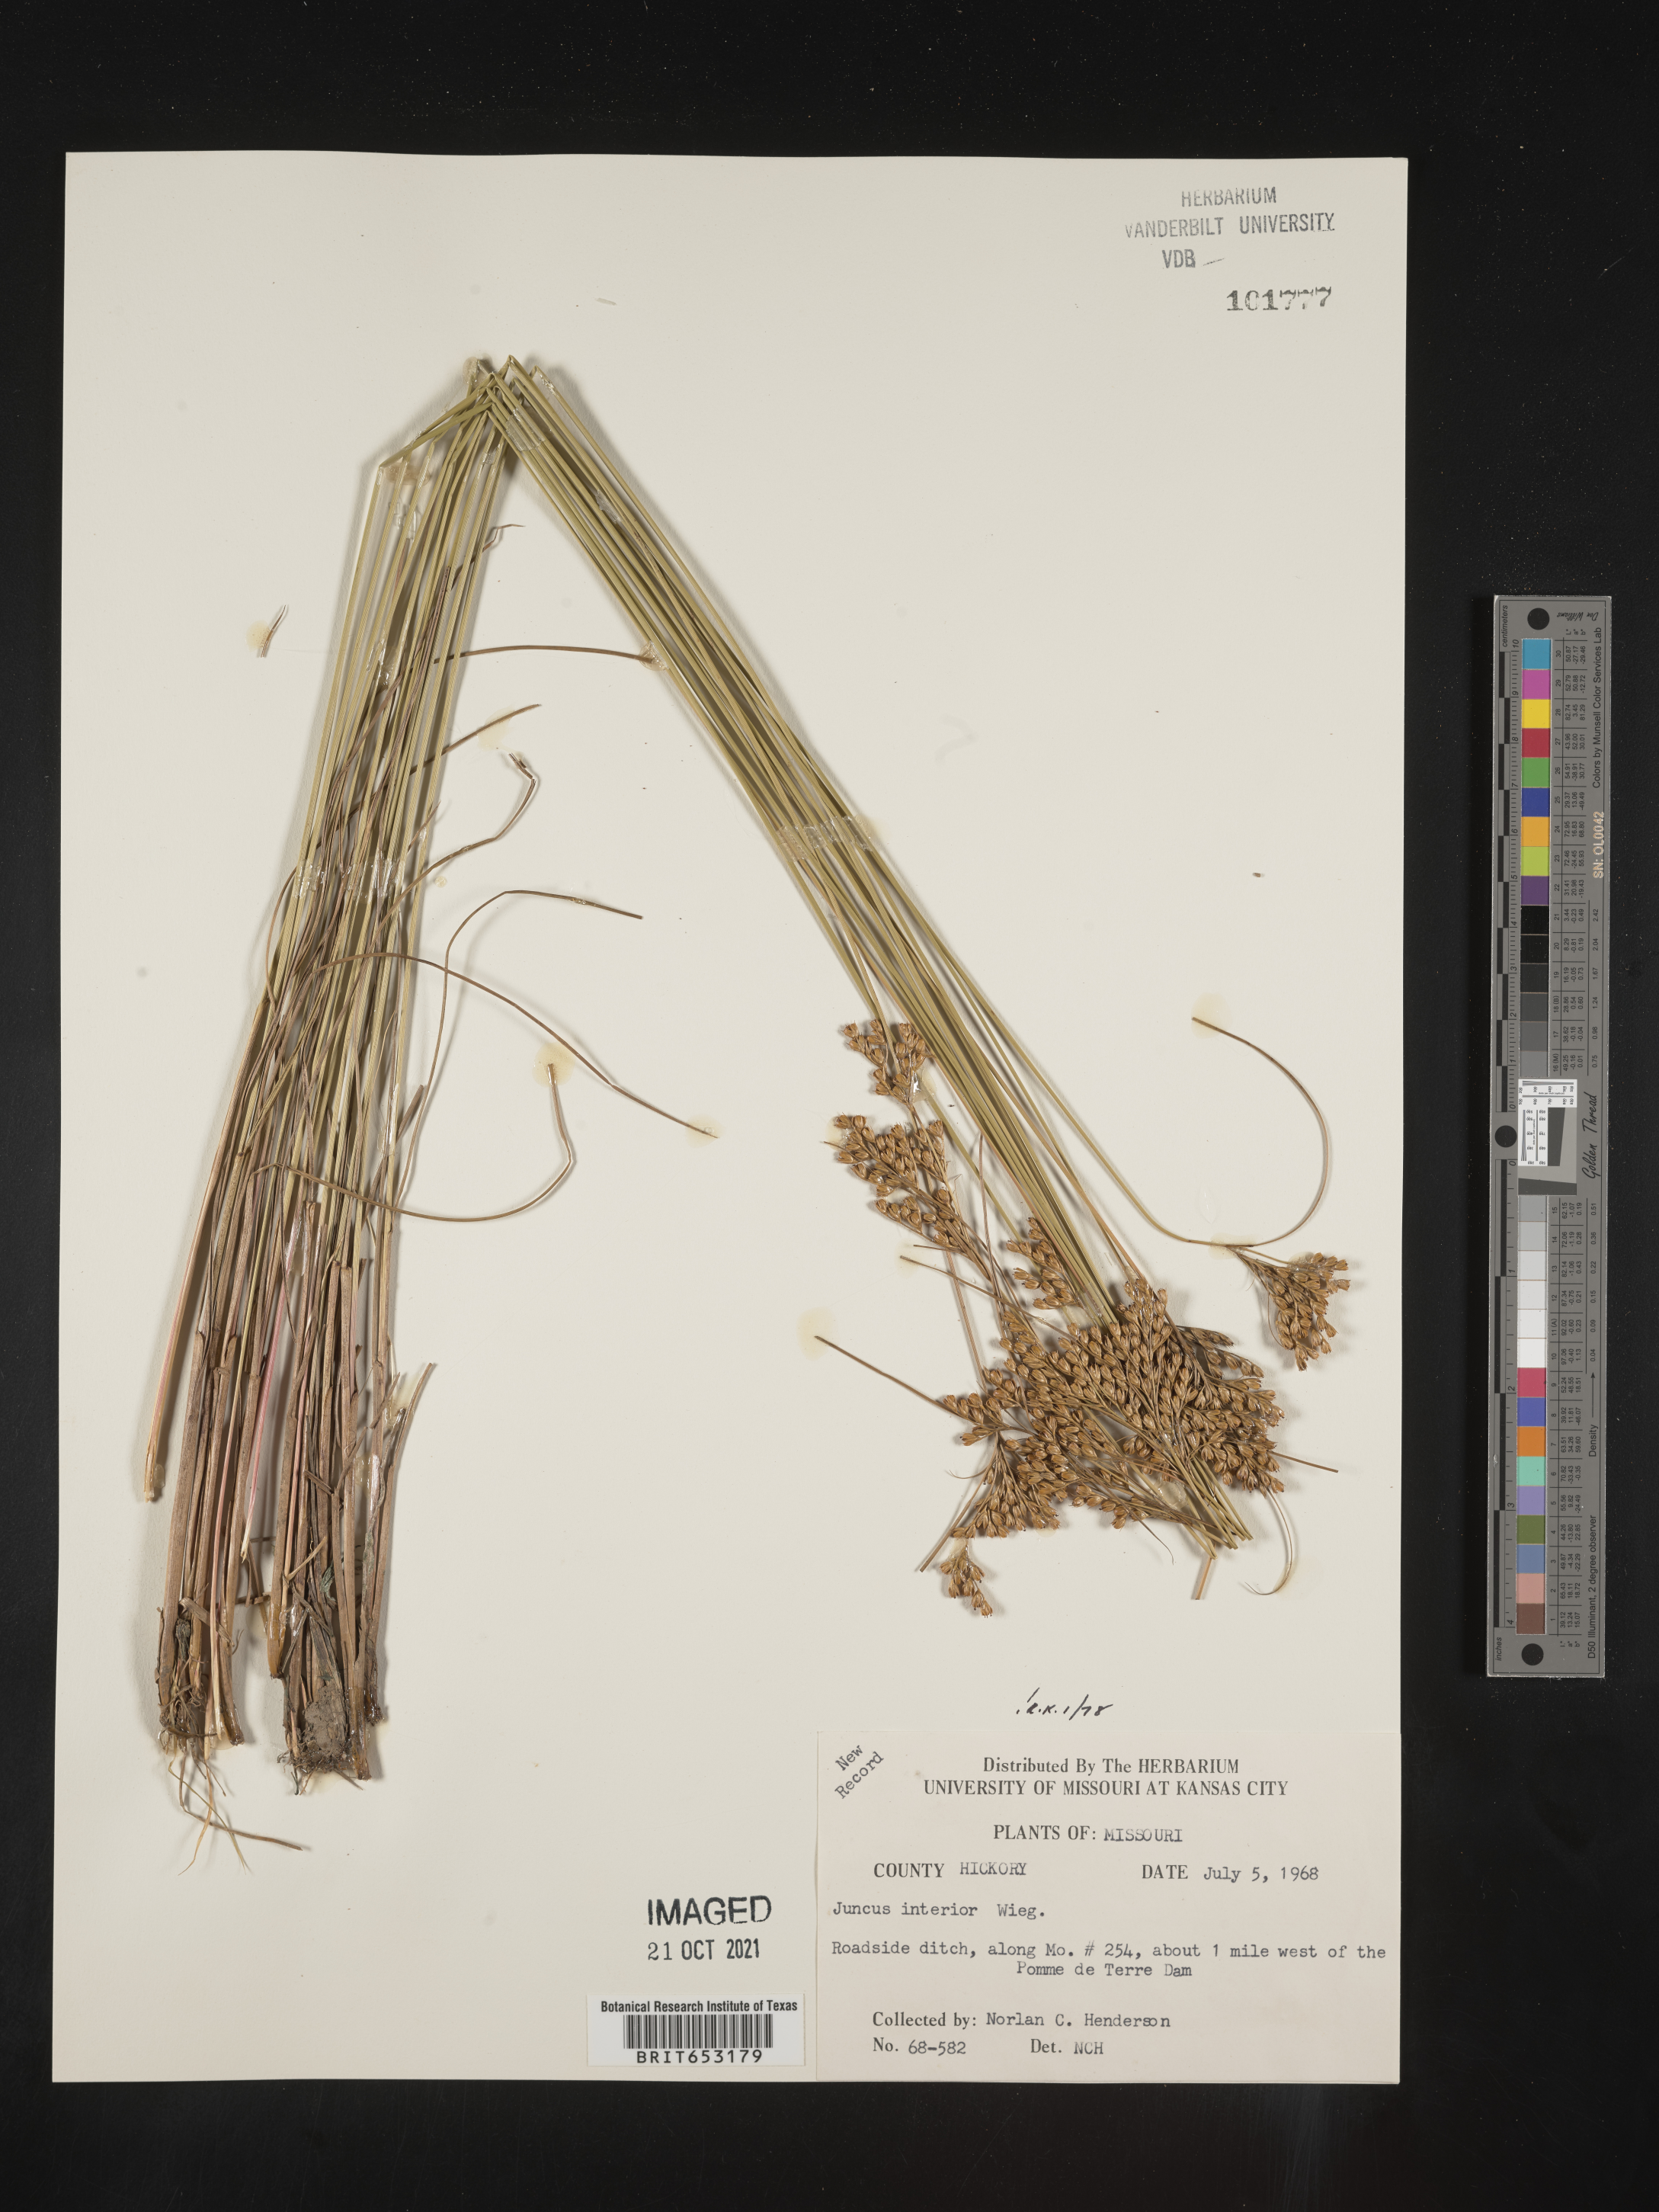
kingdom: Plantae
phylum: Tracheophyta
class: Liliopsida
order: Poales
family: Juncaceae
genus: Juncus
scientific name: Juncus interior
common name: Interior rush
